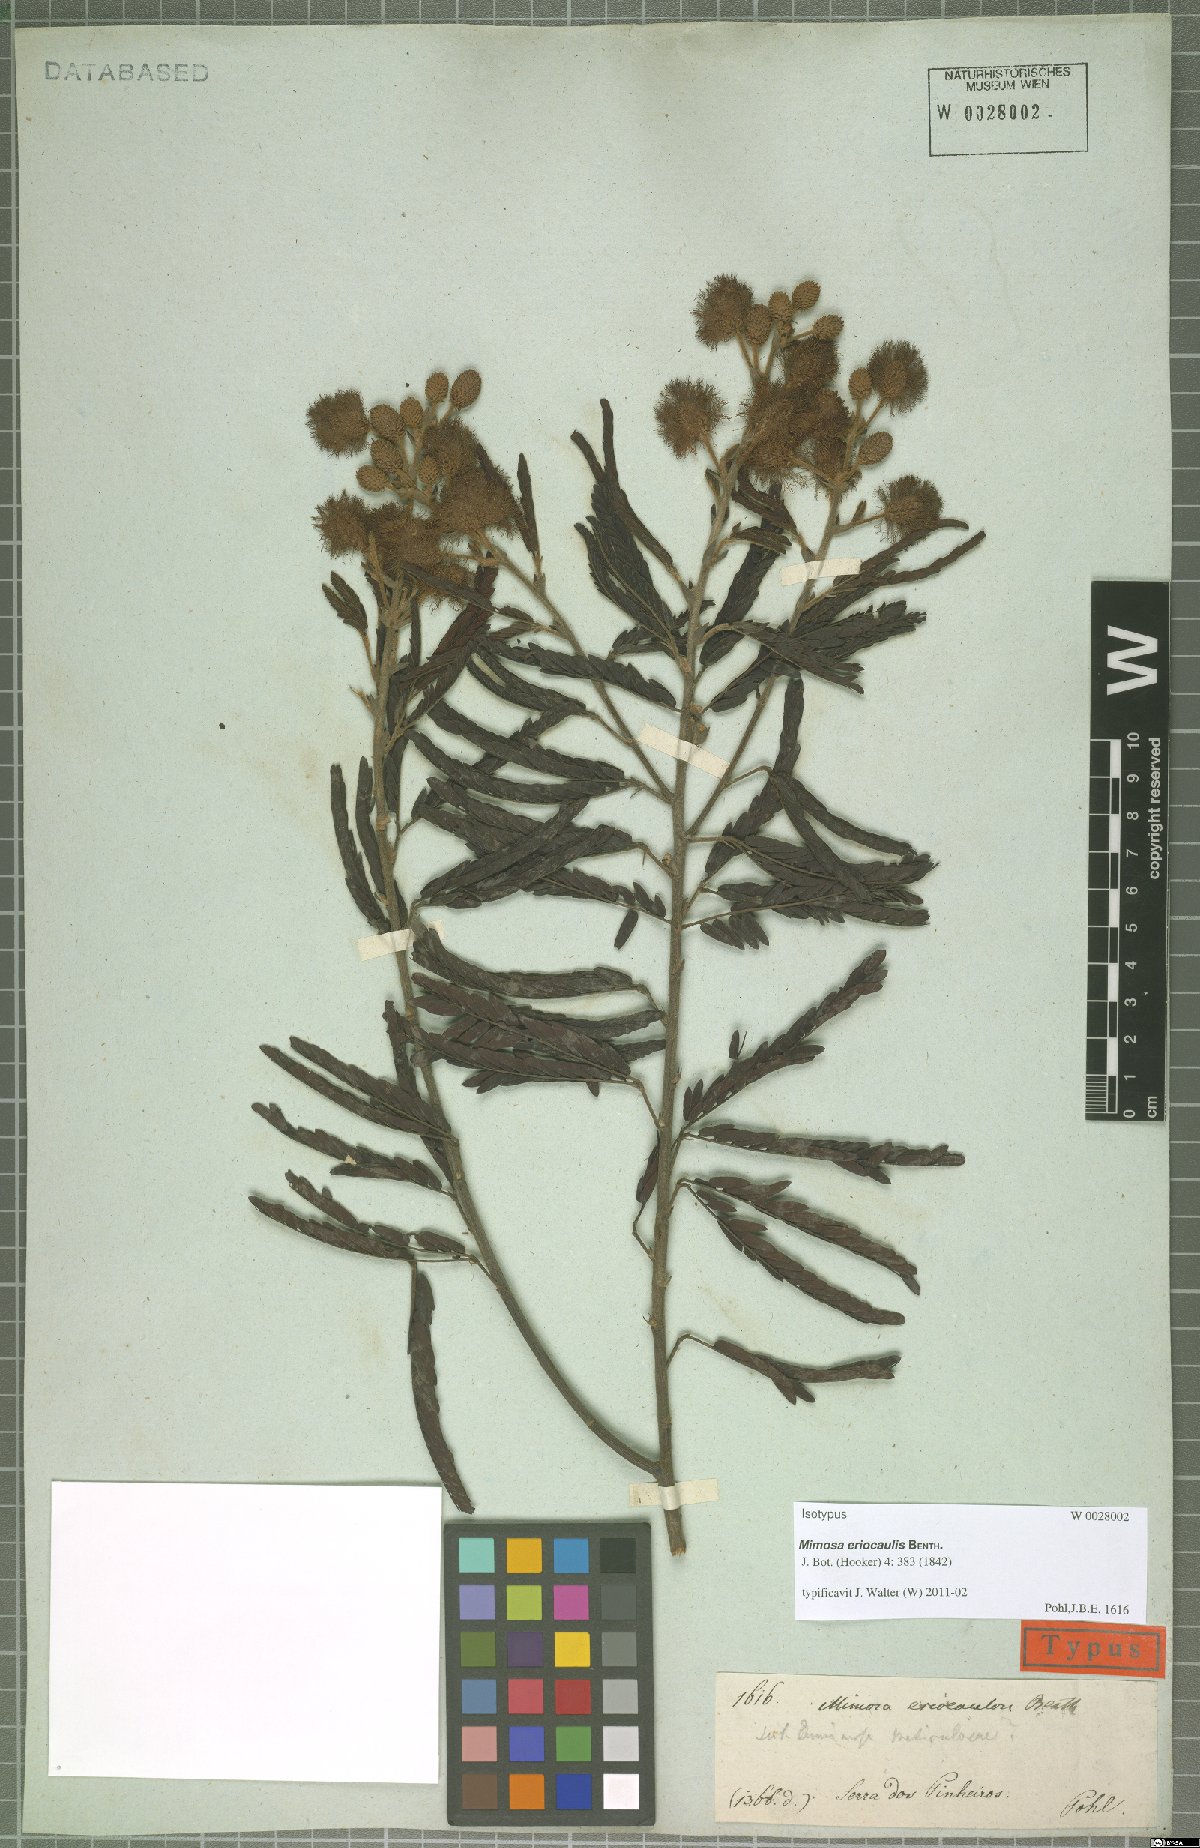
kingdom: Plantae
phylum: Tracheophyta
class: Magnoliopsida
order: Fabales
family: Fabaceae
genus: Mimosa
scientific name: Mimosa pogocephala
